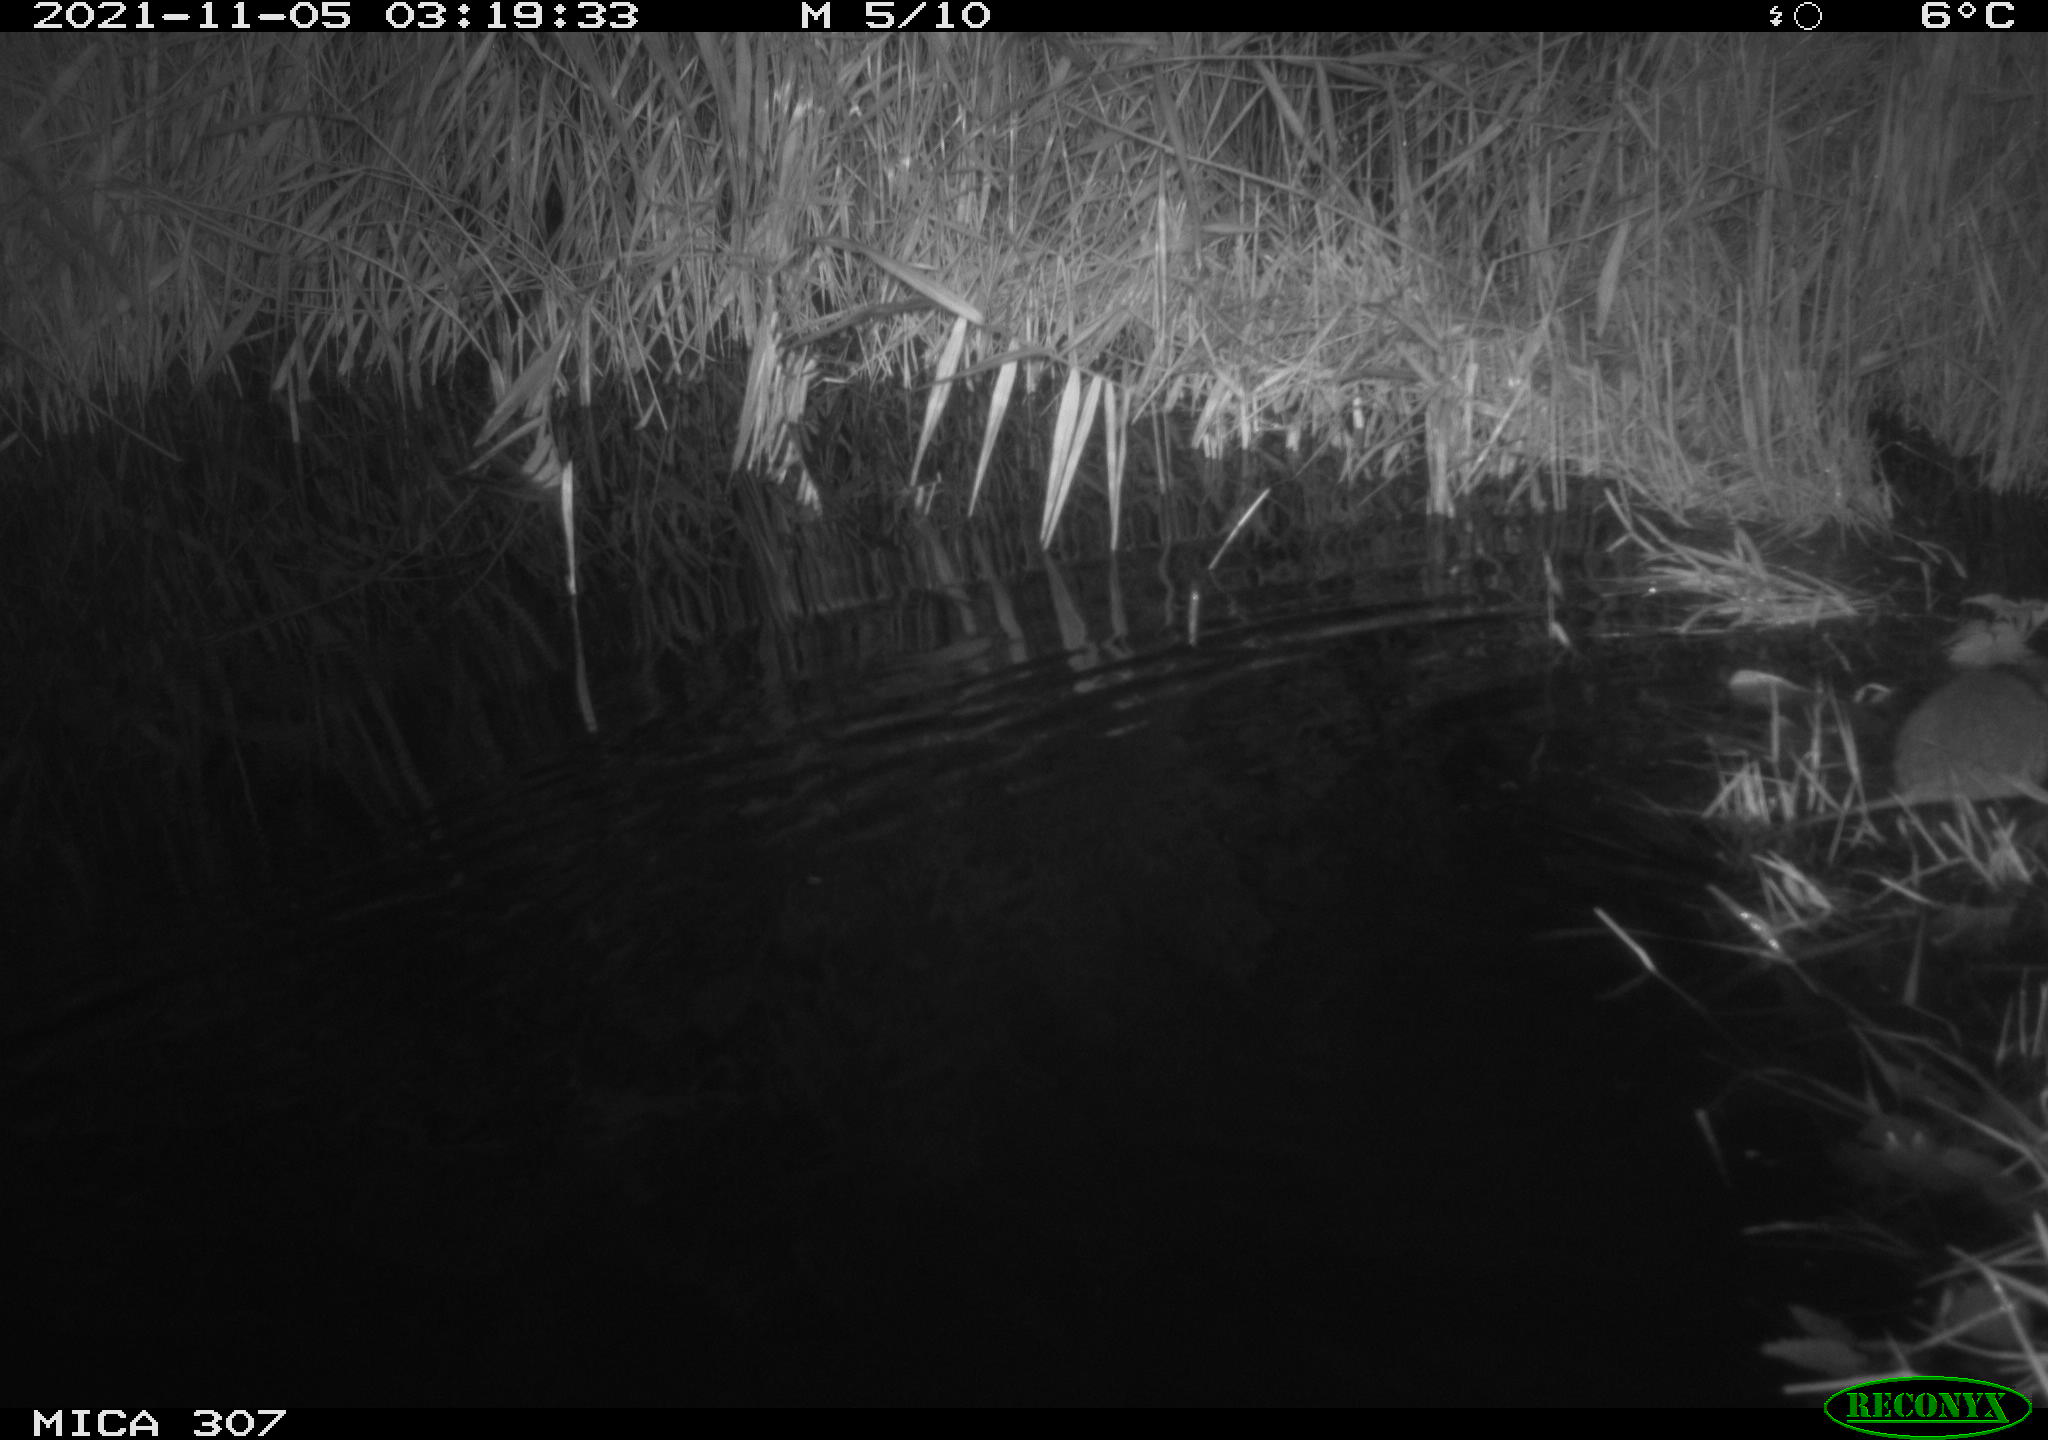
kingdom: Animalia
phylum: Chordata
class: Mammalia
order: Rodentia
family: Muridae
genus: Rattus
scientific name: Rattus norvegicus
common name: Brown rat
